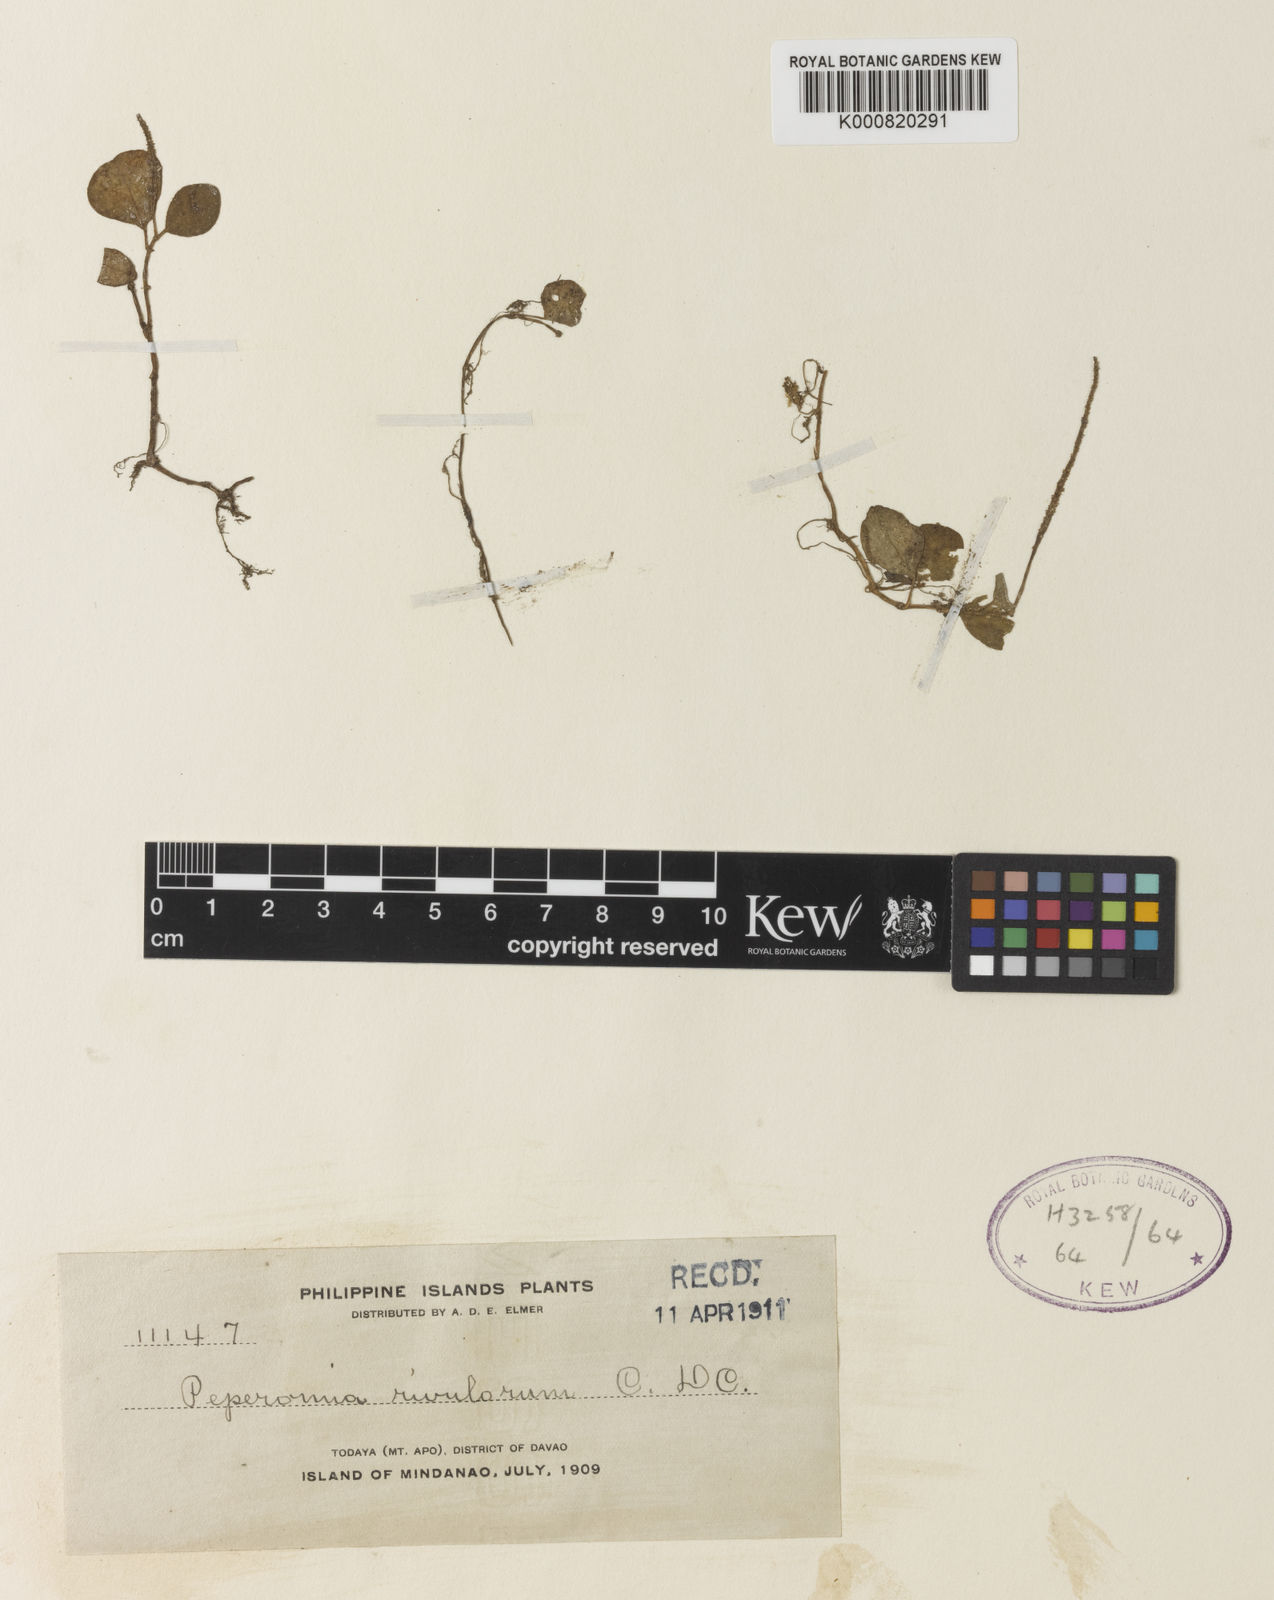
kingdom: Plantae
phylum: Tracheophyta
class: Magnoliopsida
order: Piperales
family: Piperaceae
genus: Peperomia
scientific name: Peperomia rivulorum
